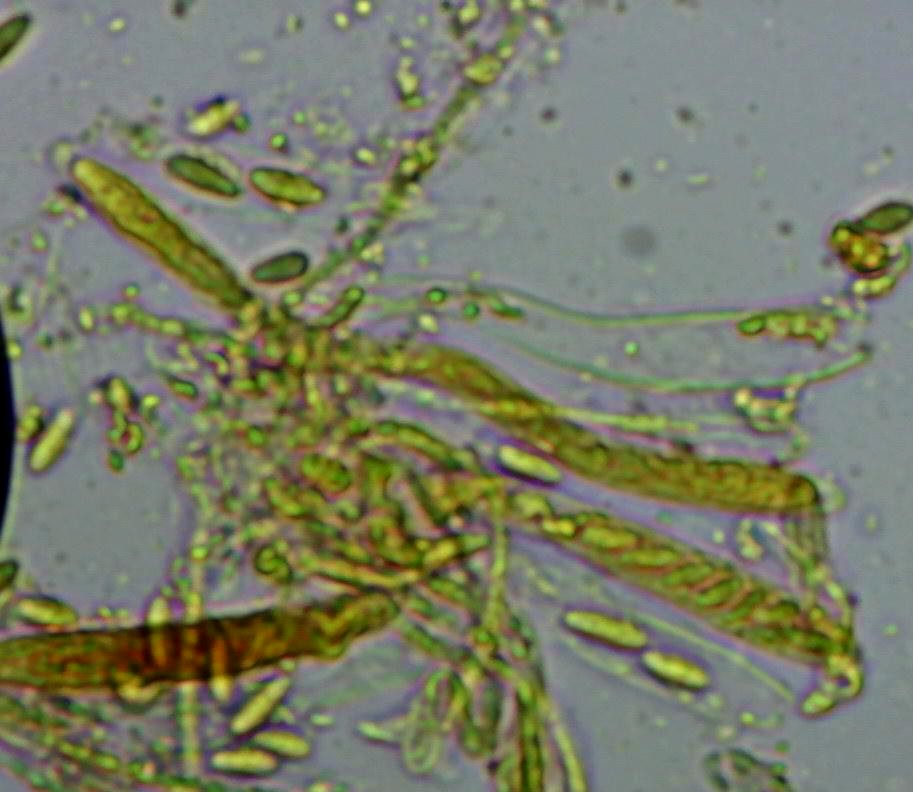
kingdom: Fungi
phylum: Ascomycota
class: Leotiomycetes
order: Helotiales
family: Hyaloscyphaceae
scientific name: Hyaloscyphaceae
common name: frynseskivefamilien
